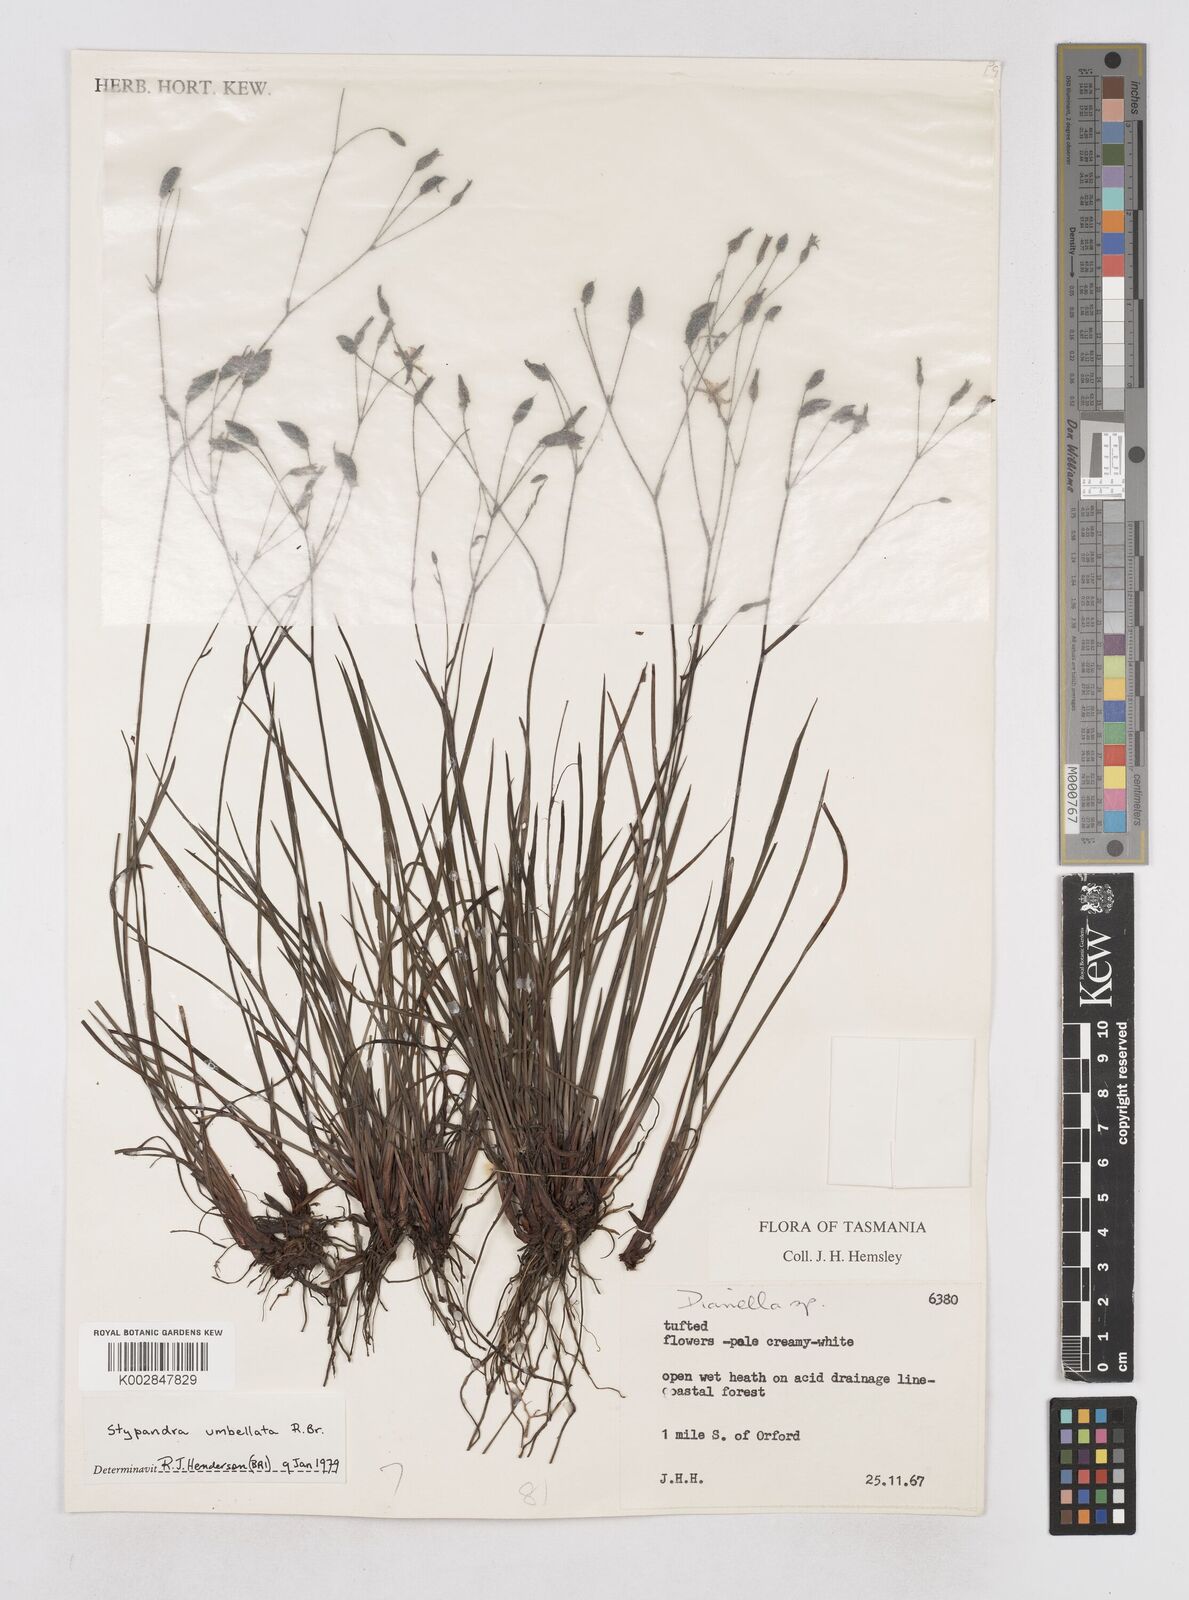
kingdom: Plantae
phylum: Tracheophyta
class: Liliopsida
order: Asparagales
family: Asphodelaceae
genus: Thelionema
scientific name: Thelionema umbellatum
